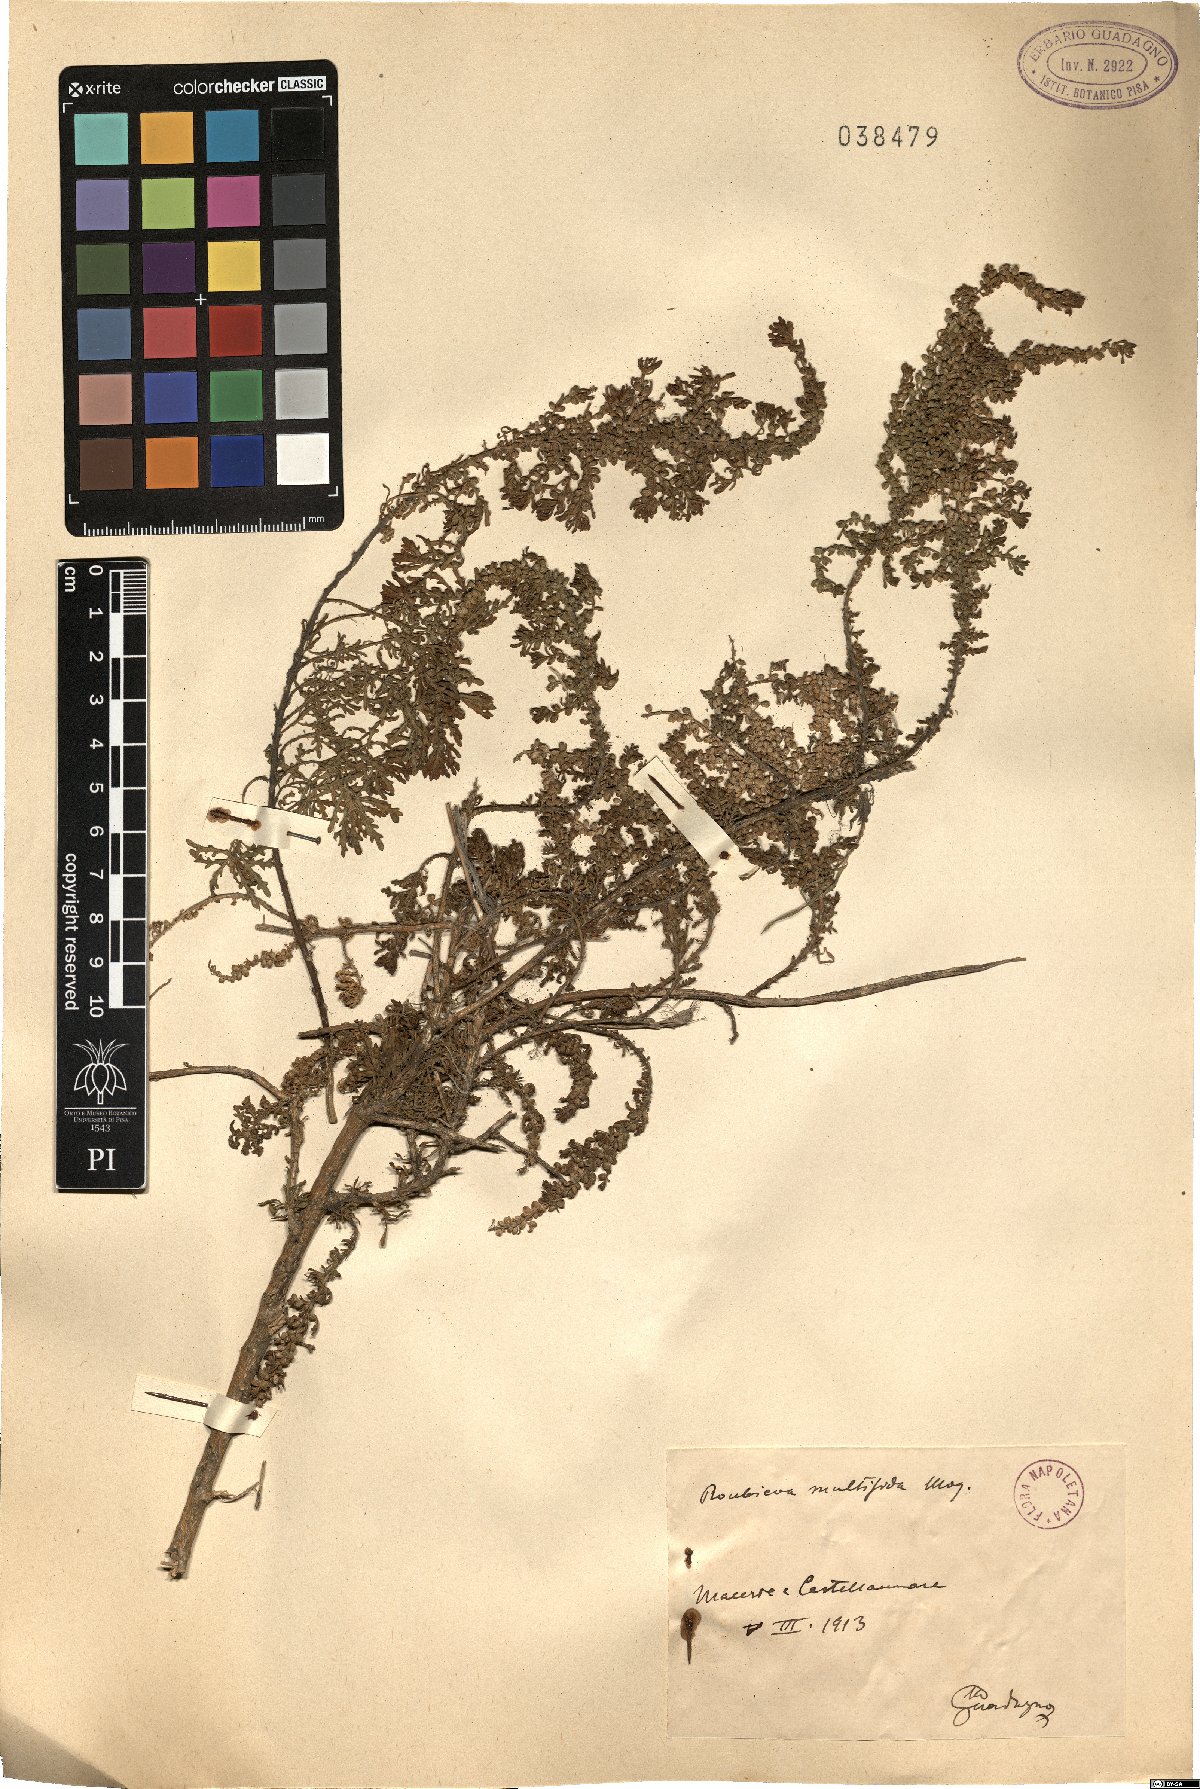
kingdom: Plantae
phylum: Tracheophyta
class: Magnoliopsida
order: Caryophyllales
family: Amaranthaceae
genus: Dysphania
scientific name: Dysphania multifida
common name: Cutleaf goosefoot
